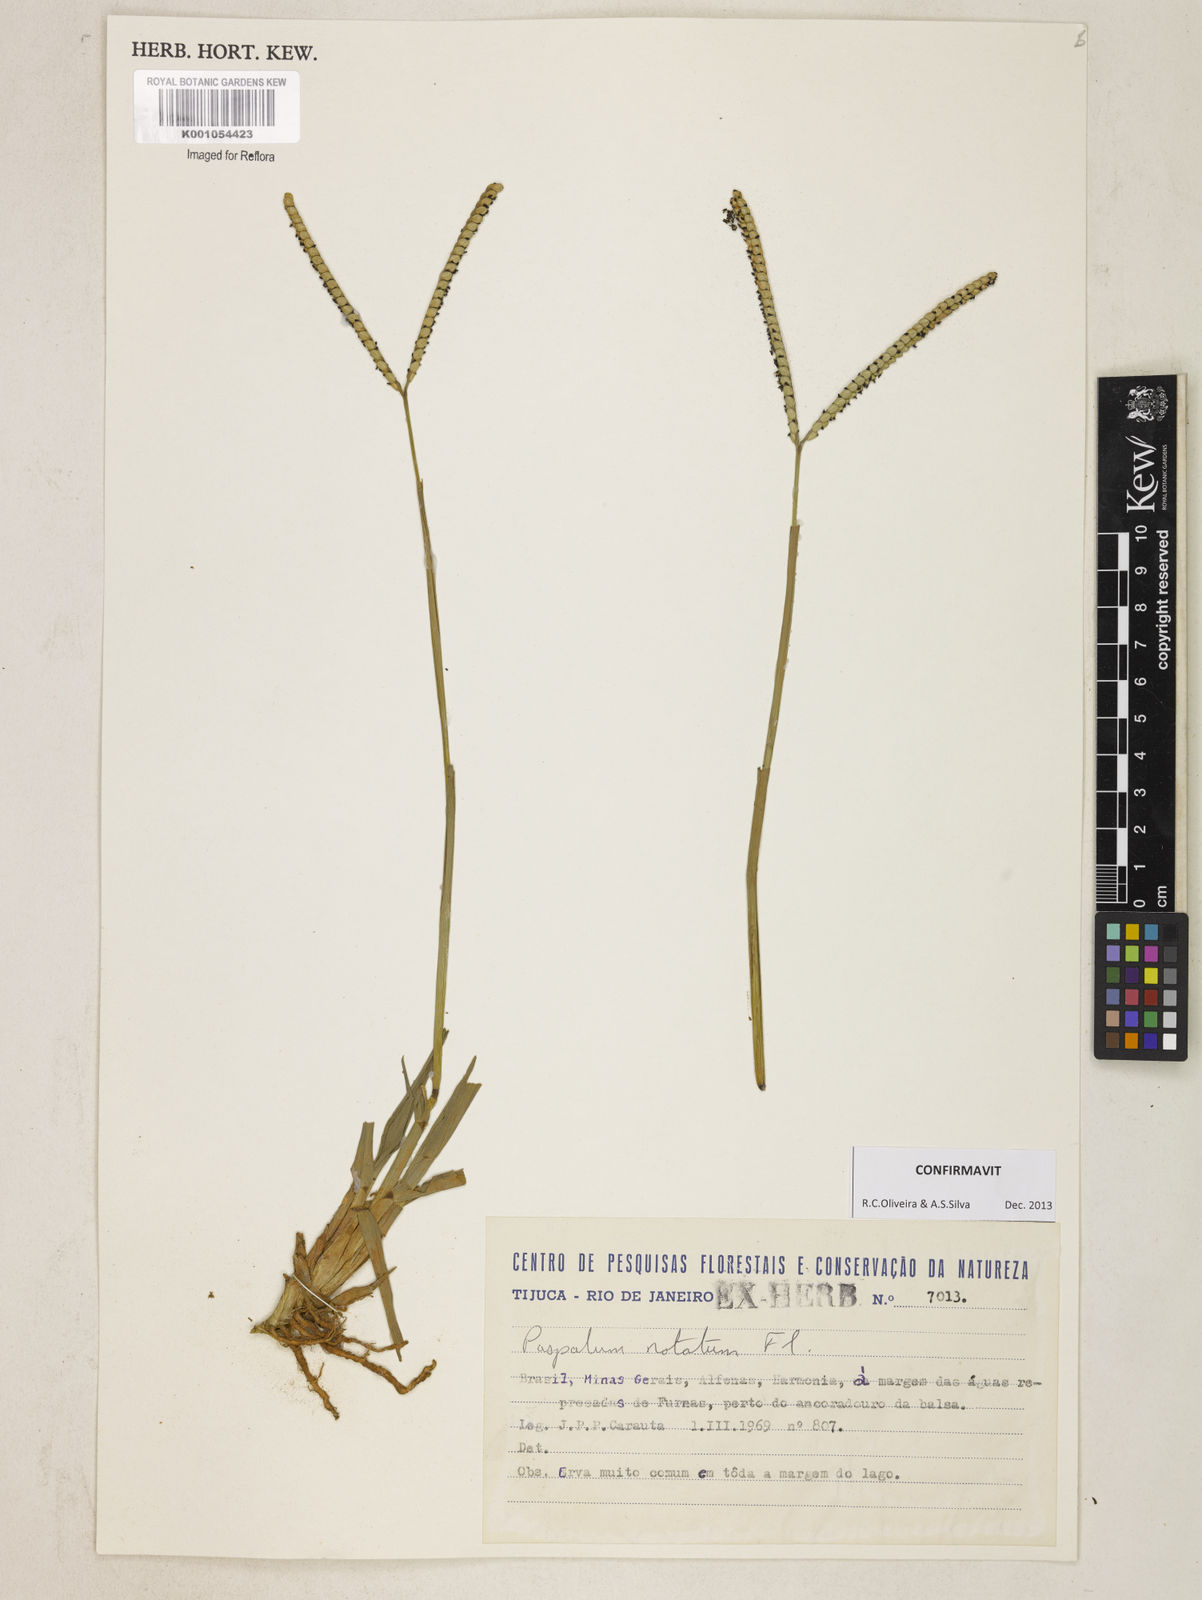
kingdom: Plantae
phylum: Tracheophyta
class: Liliopsida
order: Poales
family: Poaceae
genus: Paspalum
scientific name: Paspalum
